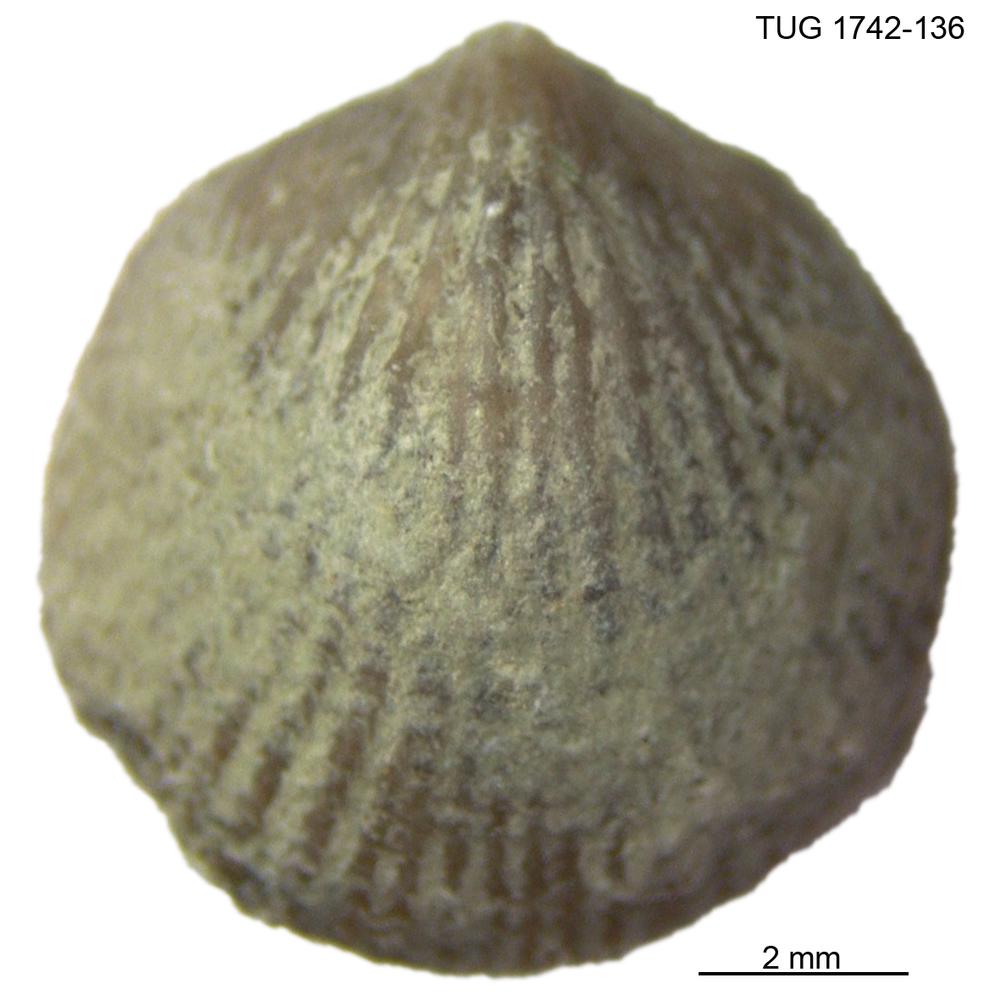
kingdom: Animalia
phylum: Brachiopoda
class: Rhynchonellata
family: Atrypidae
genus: Gotatrypa
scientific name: Gotatrypa
